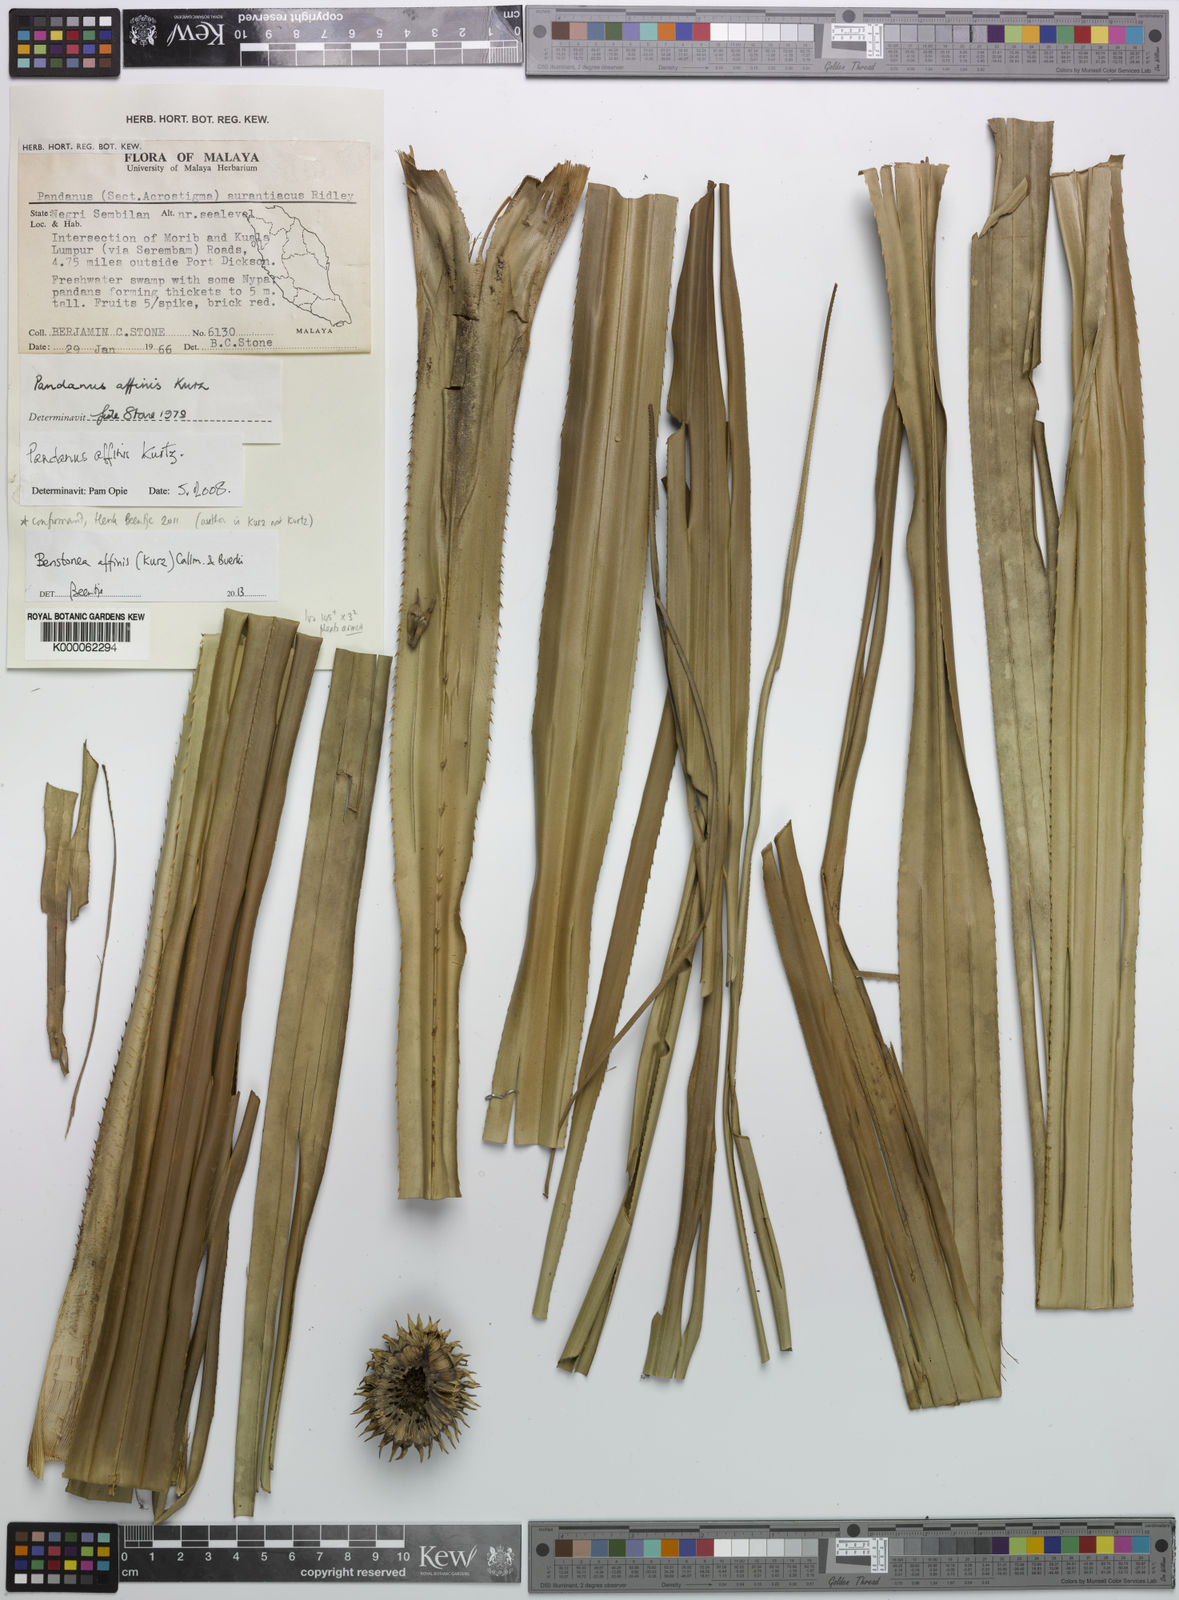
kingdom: Plantae
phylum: Tracheophyta
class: Liliopsida
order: Pandanales
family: Pandanaceae
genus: Benstonea
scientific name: Benstonea affinis
